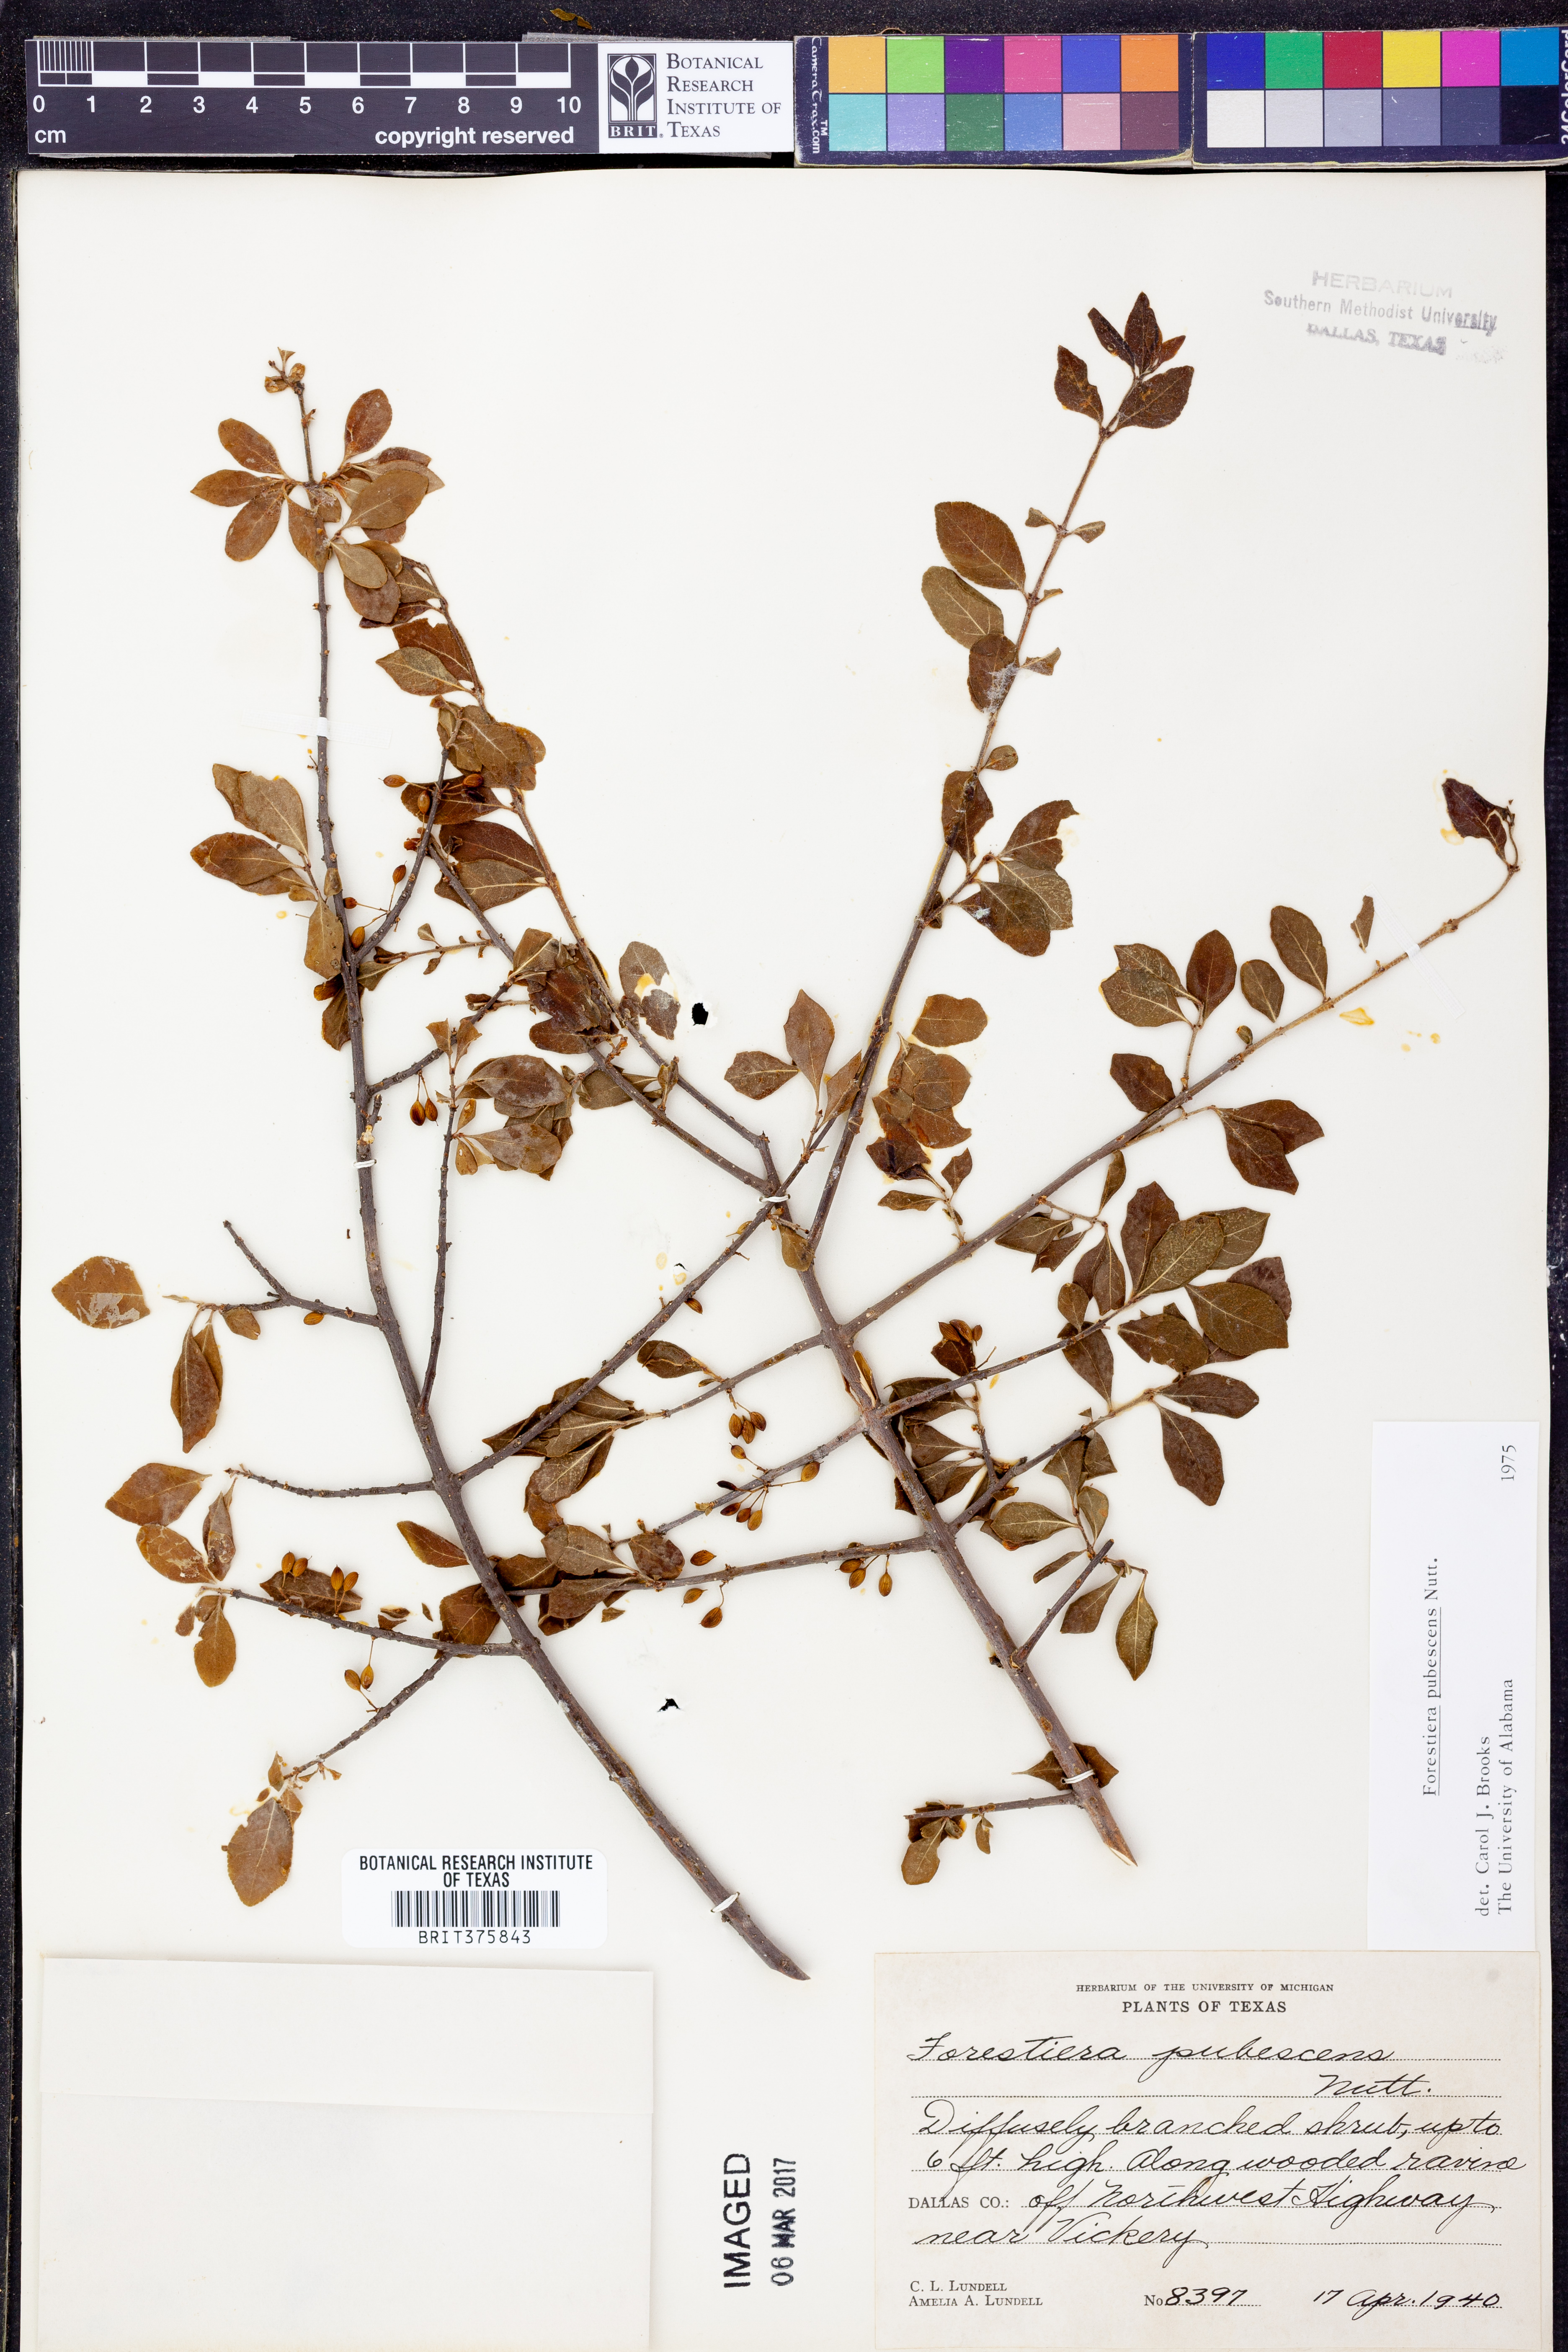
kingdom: Plantae
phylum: Tracheophyta
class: Magnoliopsida
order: Lamiales
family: Oleaceae
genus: Forestiera
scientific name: Forestiera pubescens
